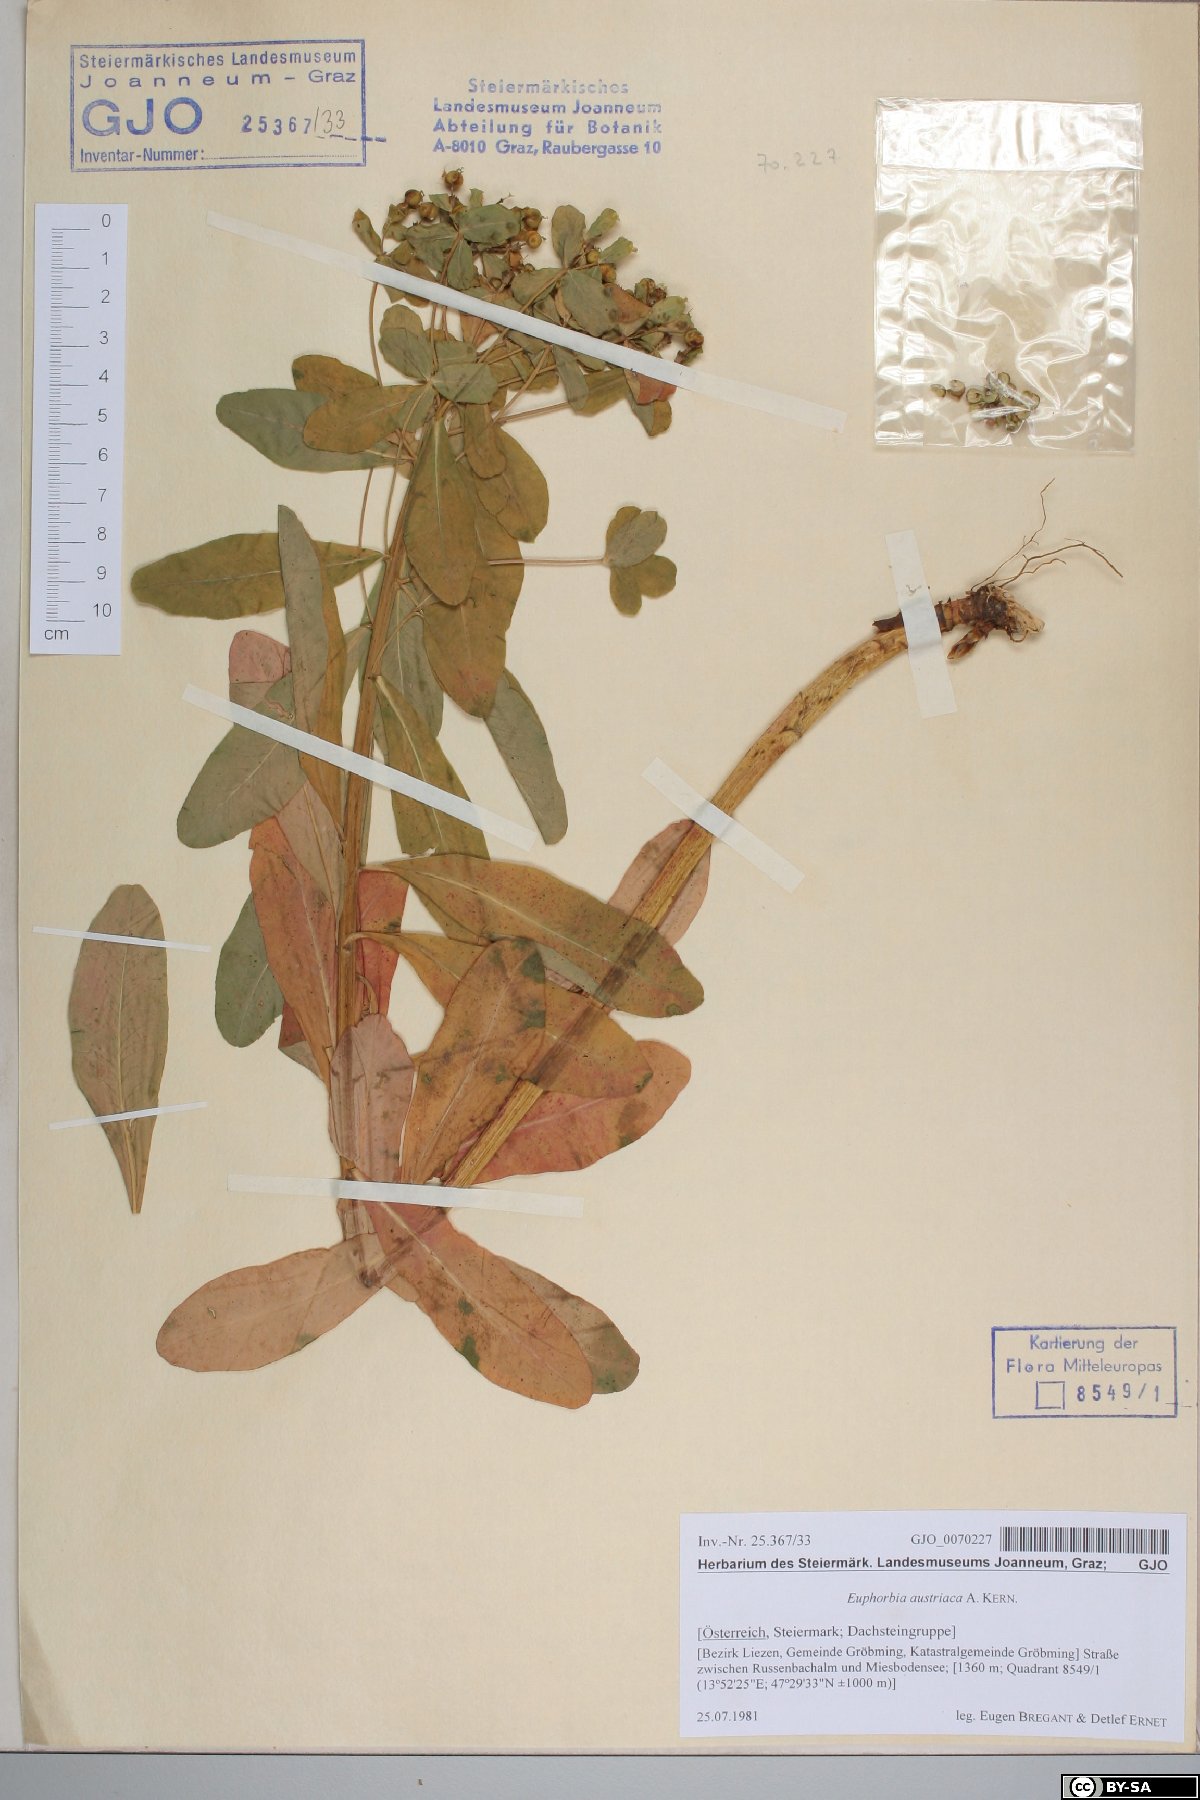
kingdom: Plantae
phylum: Tracheophyta
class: Magnoliopsida
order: Malpighiales
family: Euphorbiaceae
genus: Euphorbia
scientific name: Euphorbia austriaca
